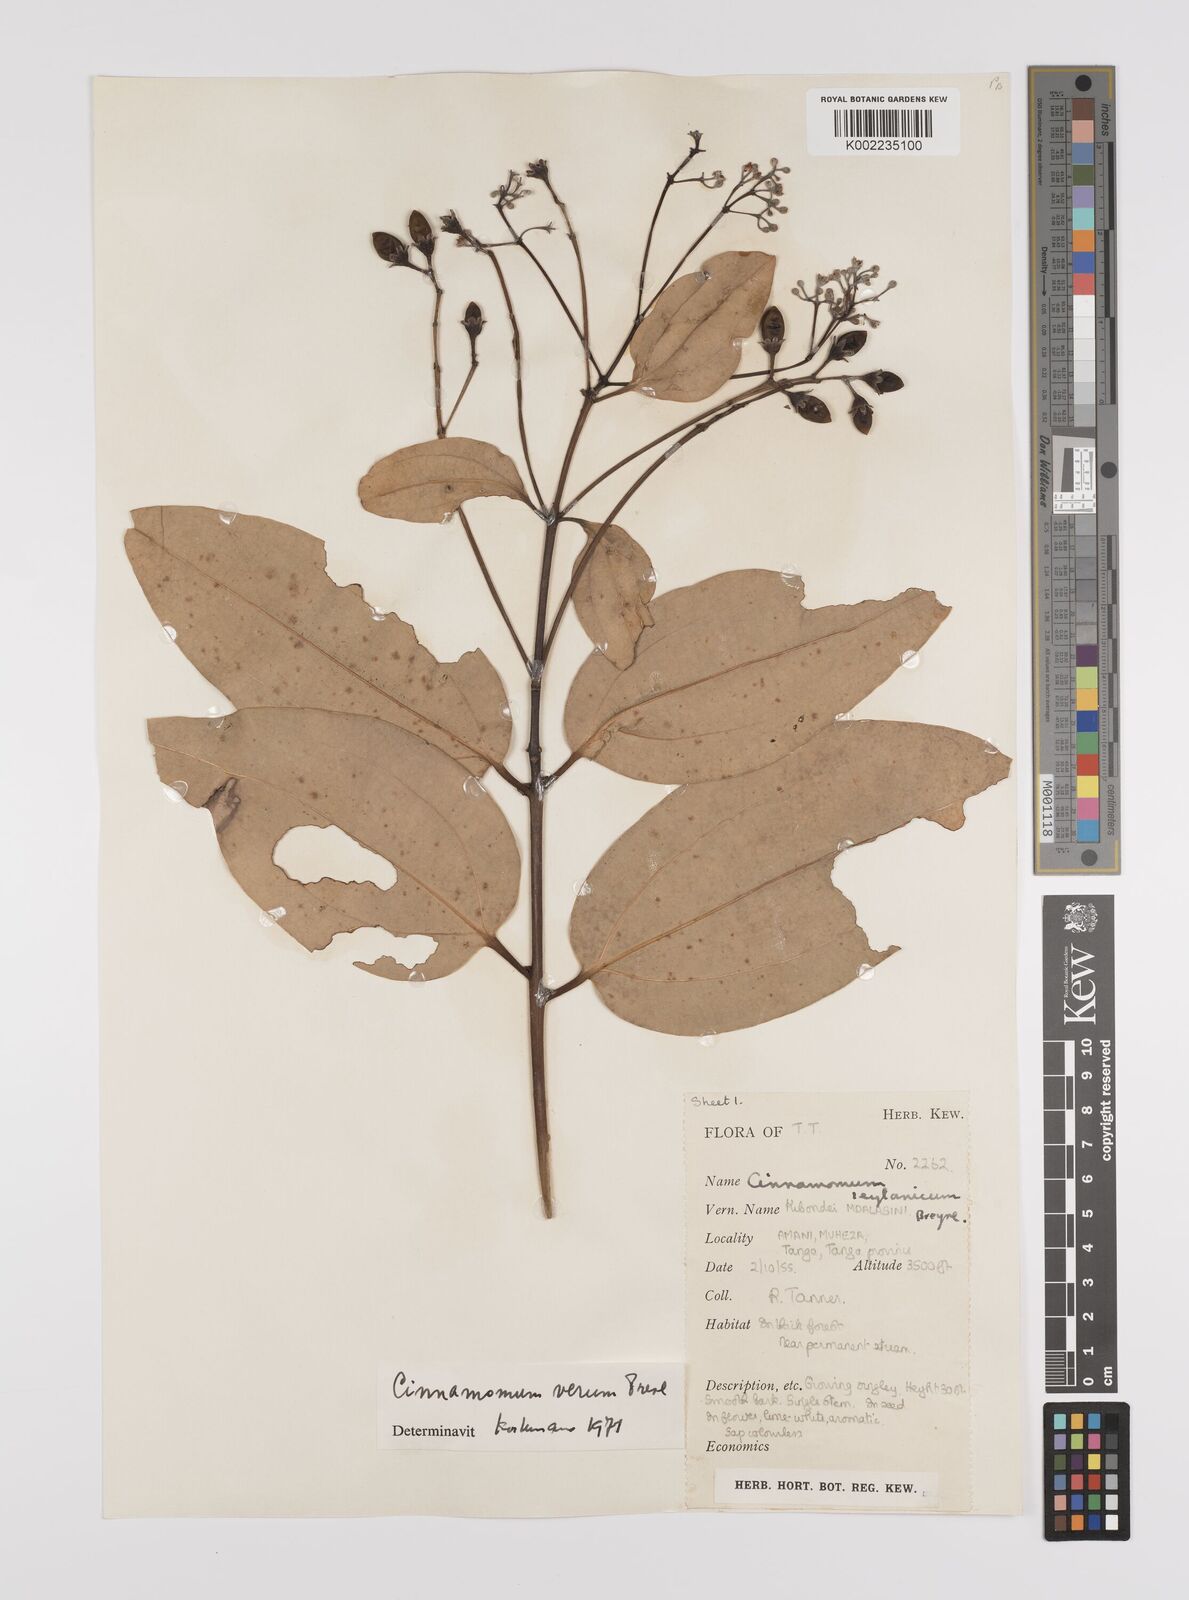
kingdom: Plantae
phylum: Tracheophyta
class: Magnoliopsida
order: Laurales
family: Lauraceae
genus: Cinnamomum
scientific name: Cinnamomum verum
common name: Cinnamon
